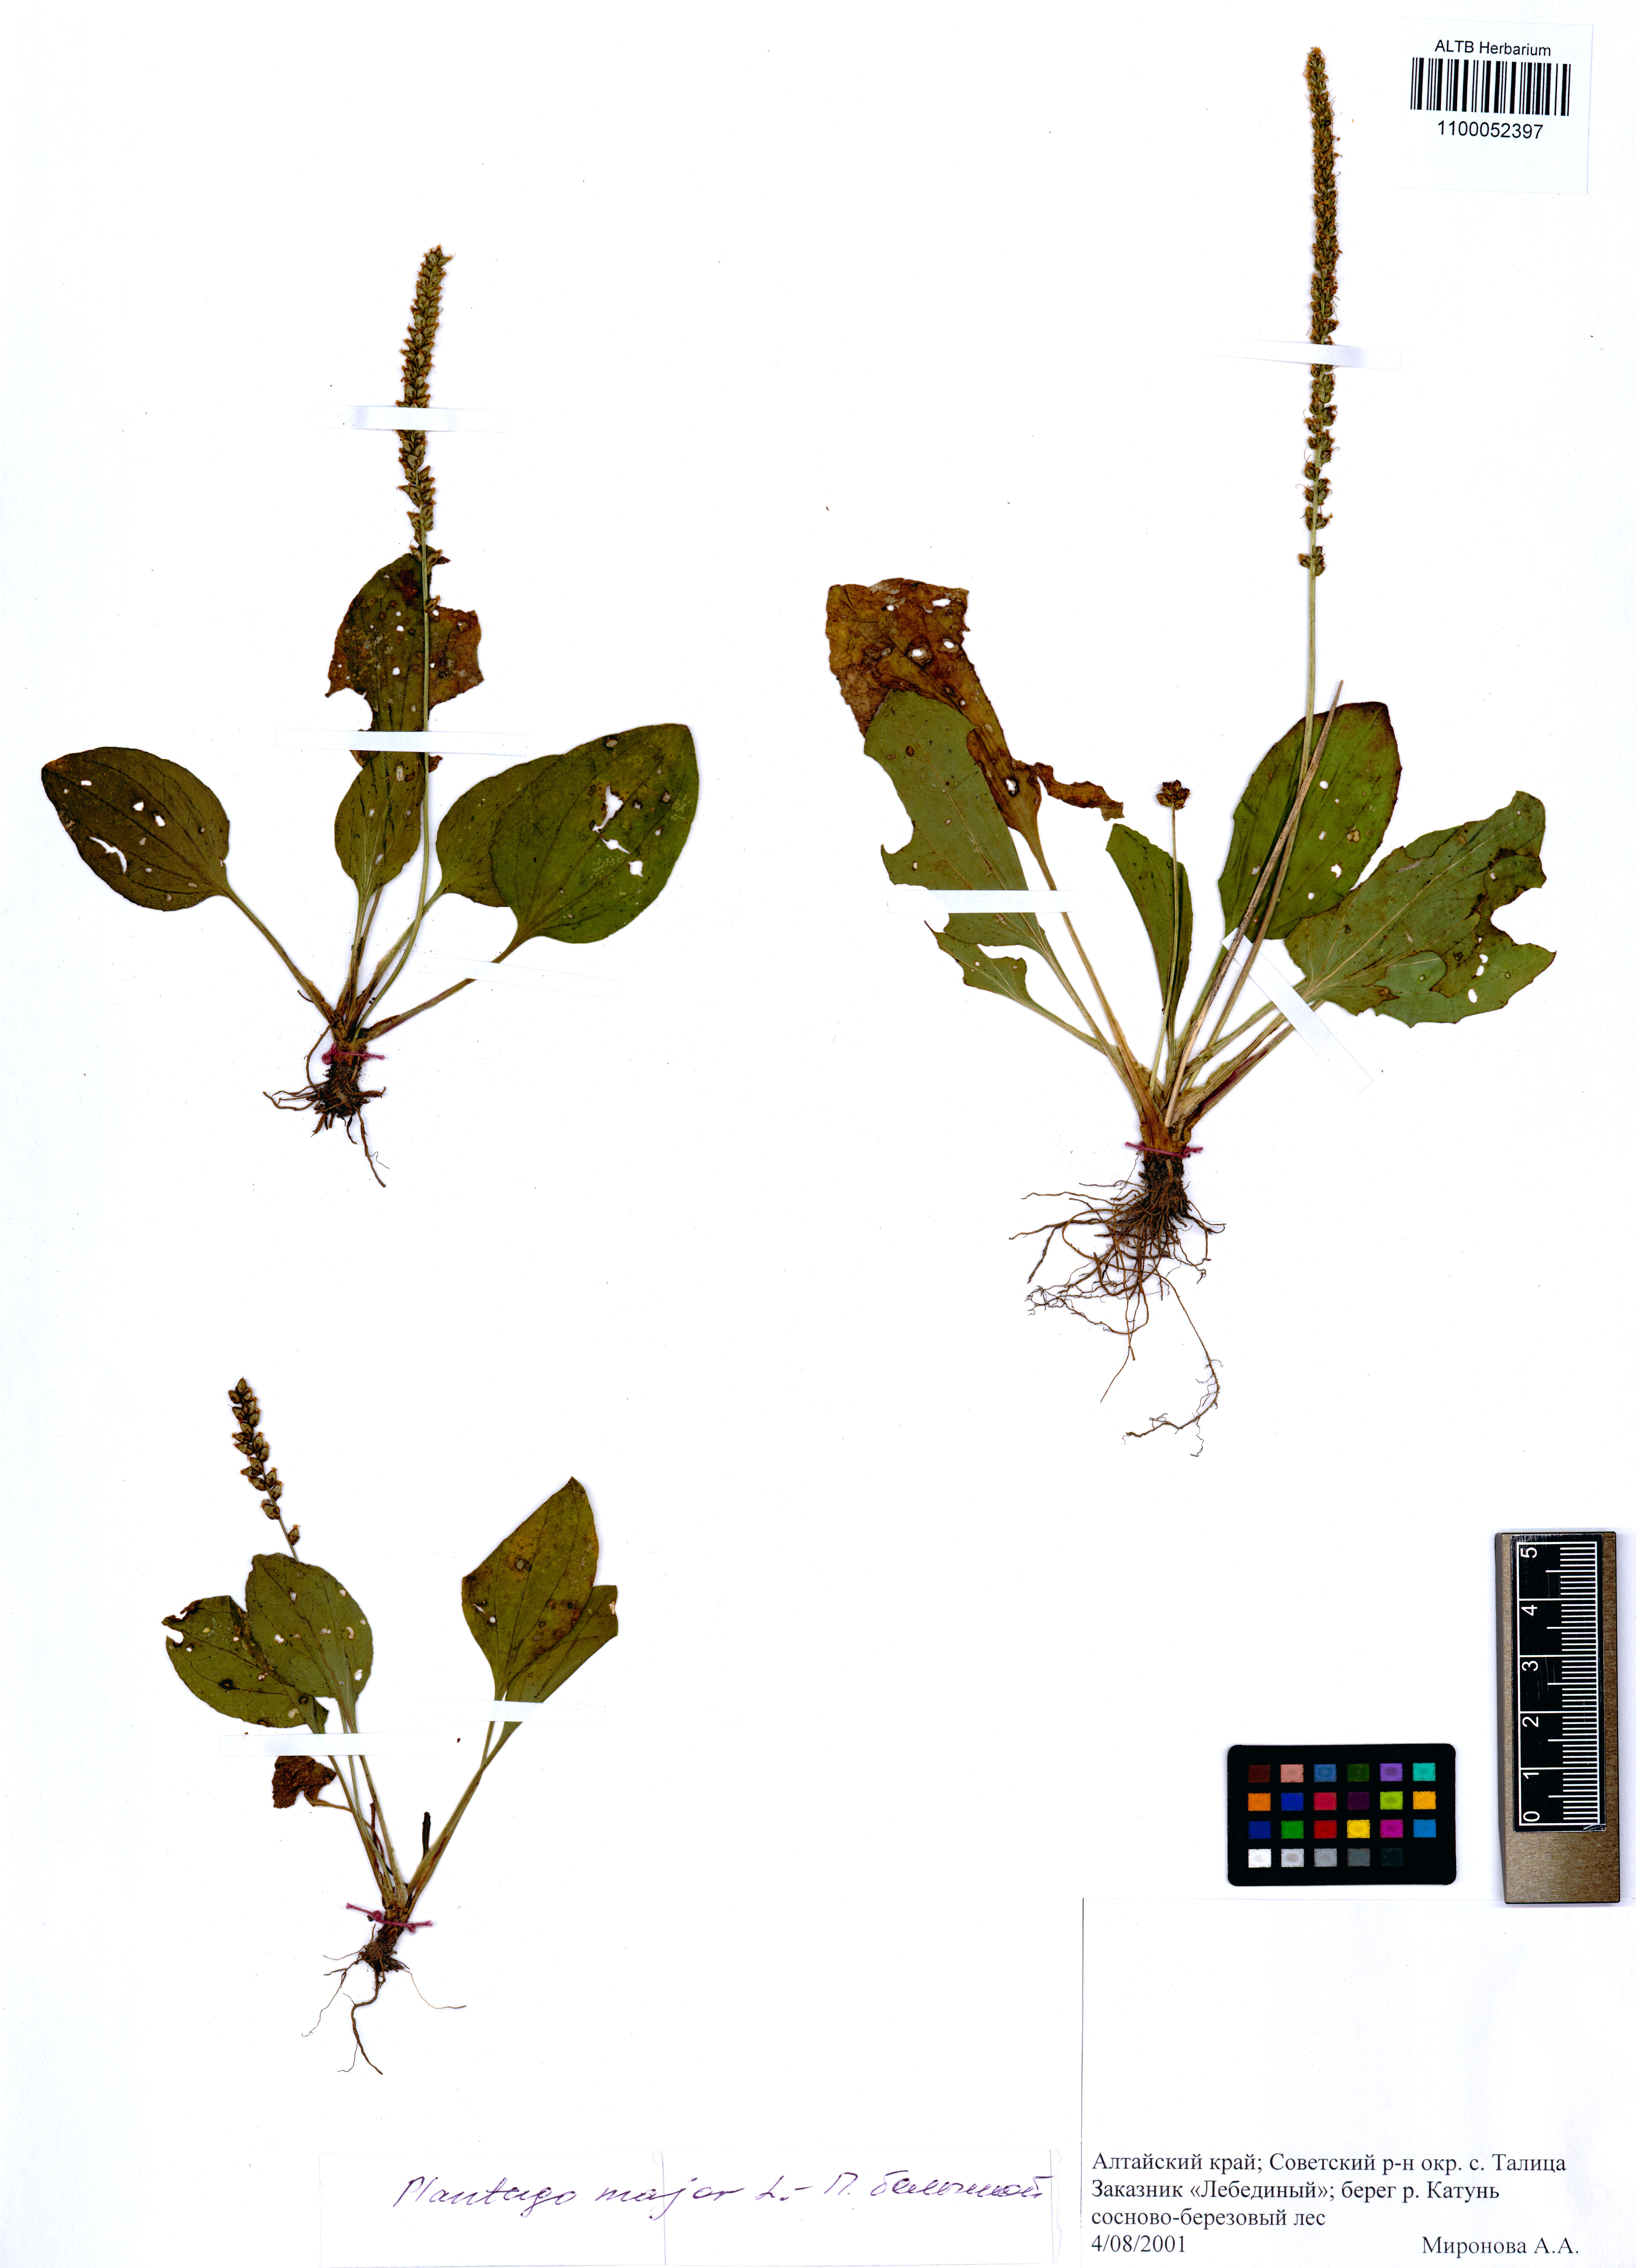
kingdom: Plantae
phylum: Tracheophyta
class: Magnoliopsida
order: Lamiales
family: Plantaginaceae
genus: Plantago
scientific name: Plantago major
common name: Common plantain
